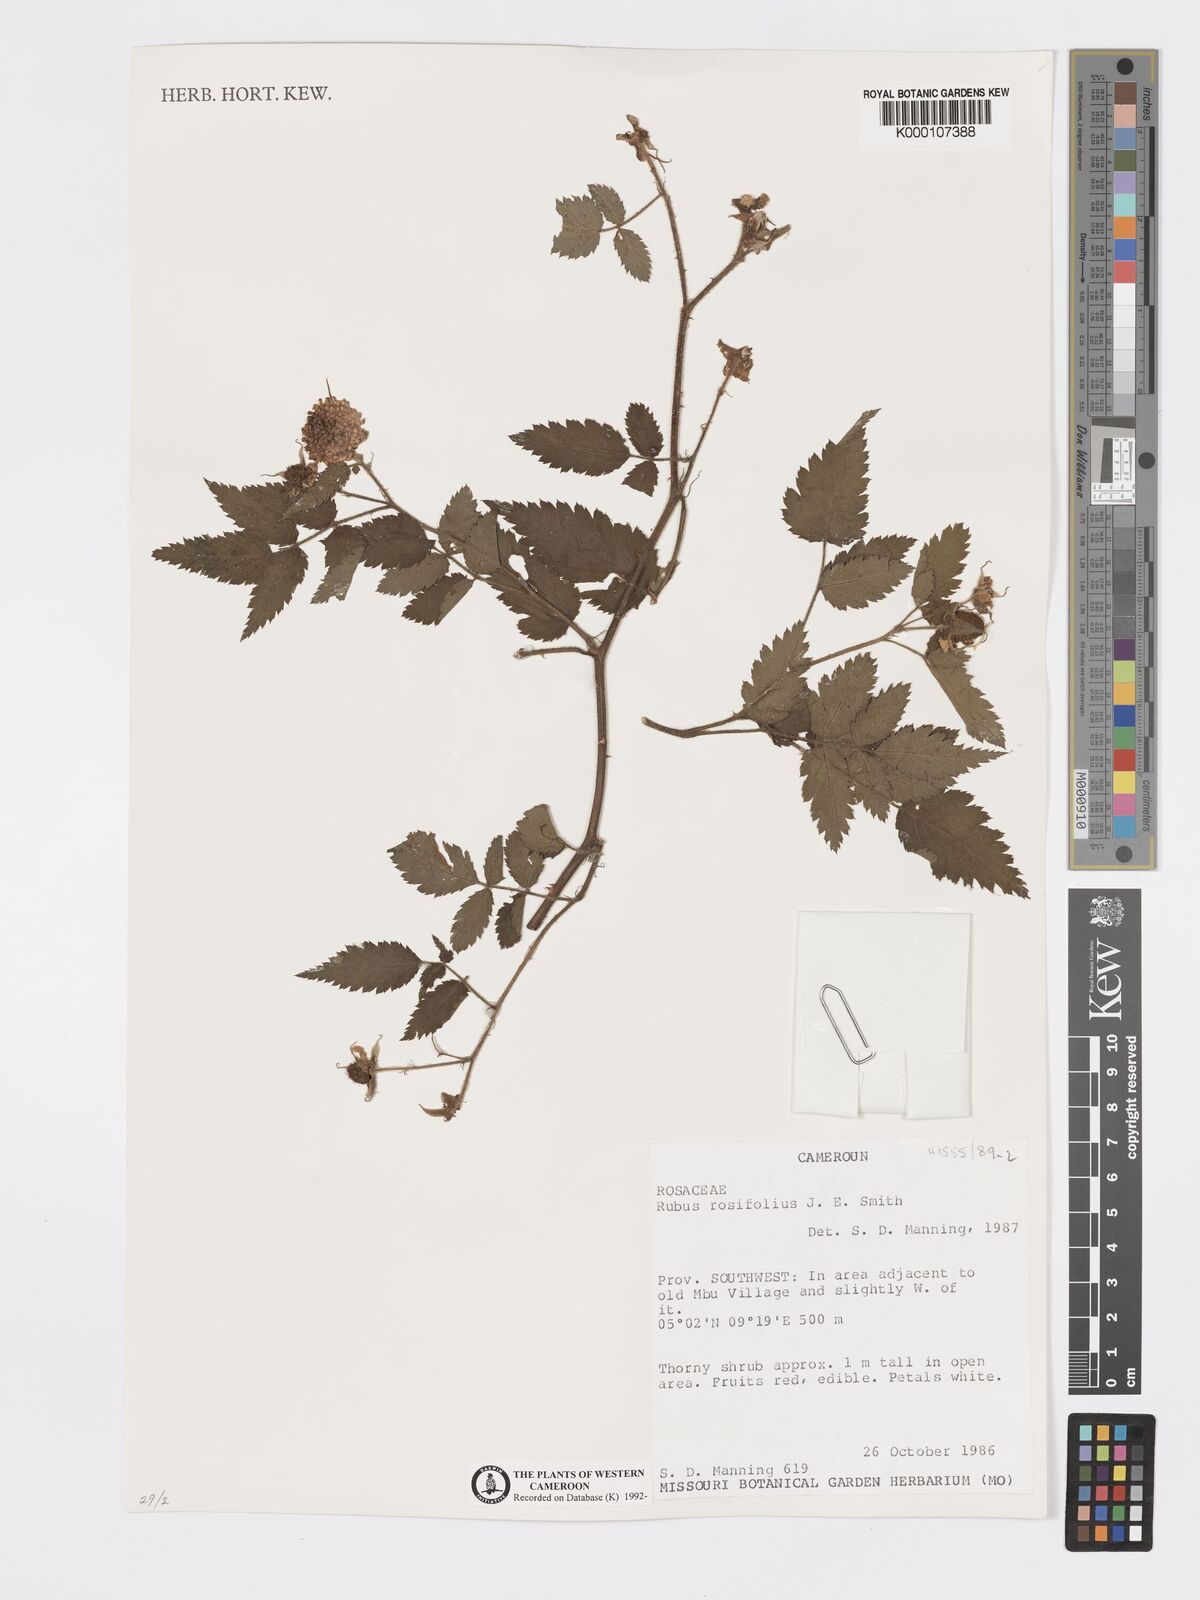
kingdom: Plantae
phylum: Tracheophyta
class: Magnoliopsida
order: Rosales
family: Rosaceae
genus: Rubus
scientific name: Rubus rosifolius
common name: Roseleaf raspberry
